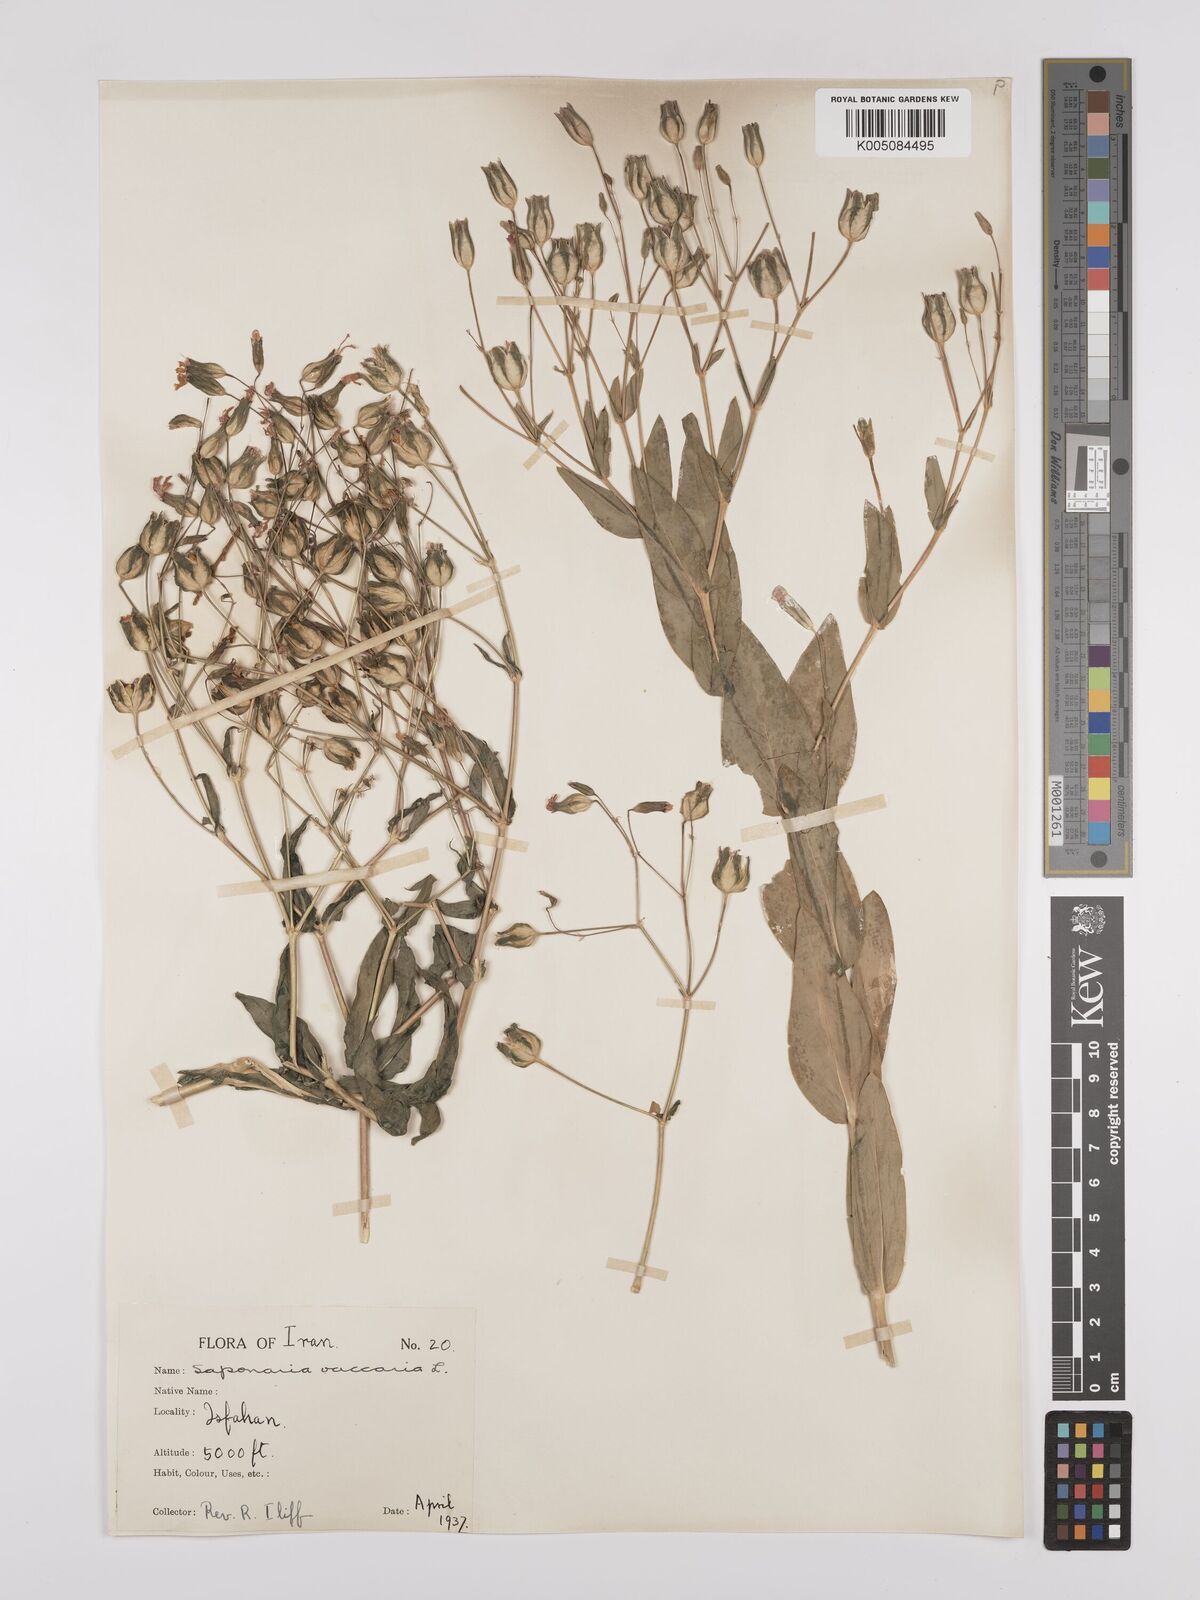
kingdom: Plantae
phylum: Tracheophyta
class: Magnoliopsida
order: Caryophyllales
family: Caryophyllaceae
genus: Gypsophila
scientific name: Gypsophila vaccaria
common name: Cow soapwort
